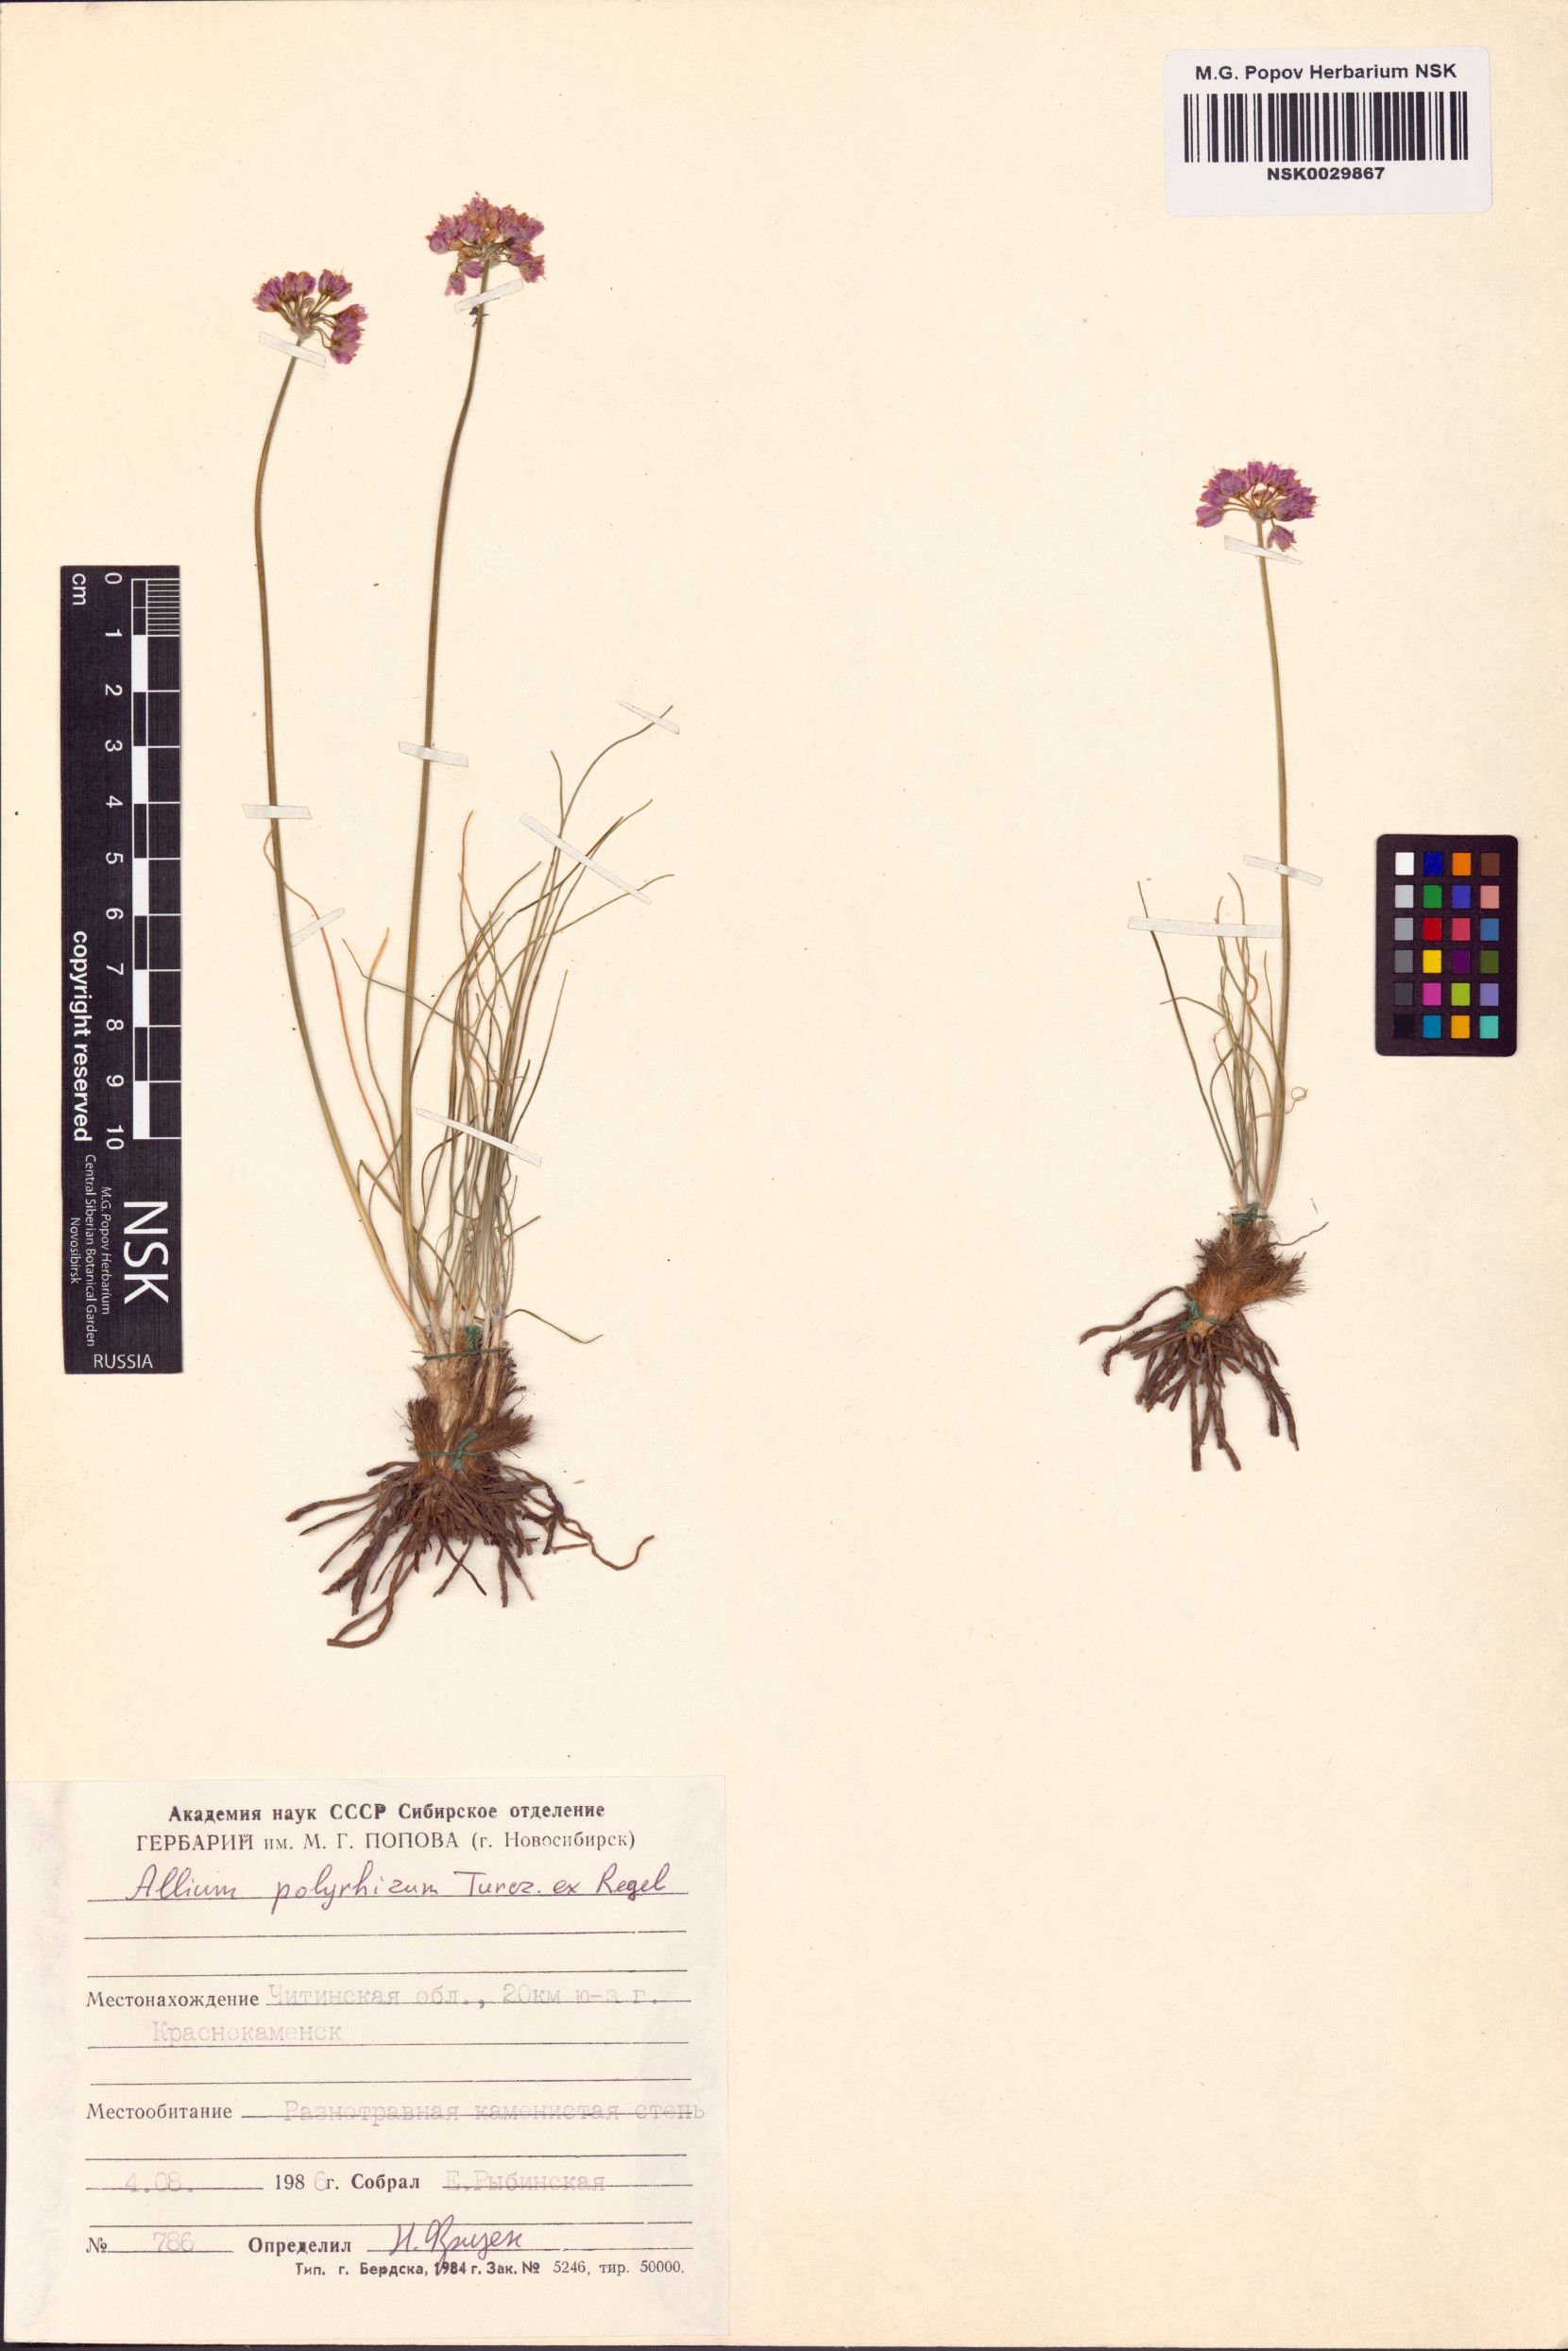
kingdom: Plantae
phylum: Tracheophyta
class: Liliopsida
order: Asparagales
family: Amaryllidaceae
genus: Allium
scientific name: Allium polyrhizum
